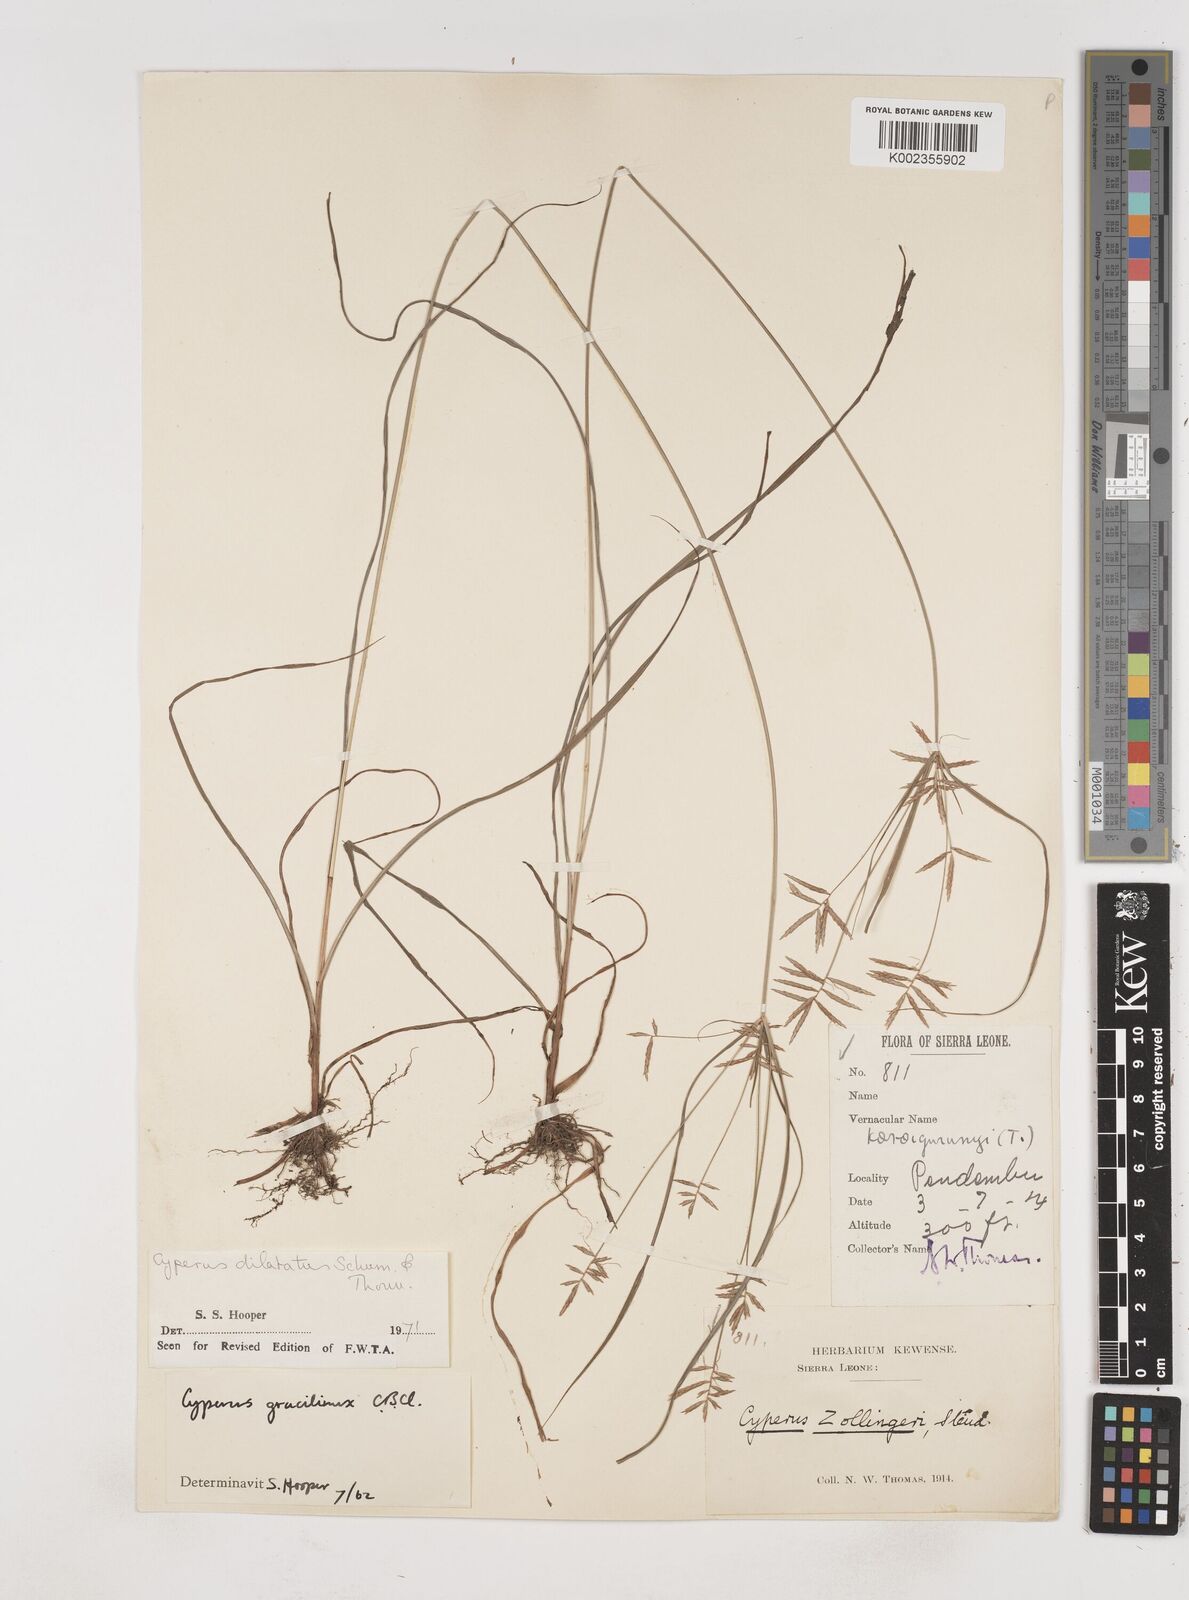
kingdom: Plantae
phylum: Tracheophyta
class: Liliopsida
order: Poales
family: Cyperaceae
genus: Cyperus
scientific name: Cyperus dilatatus
